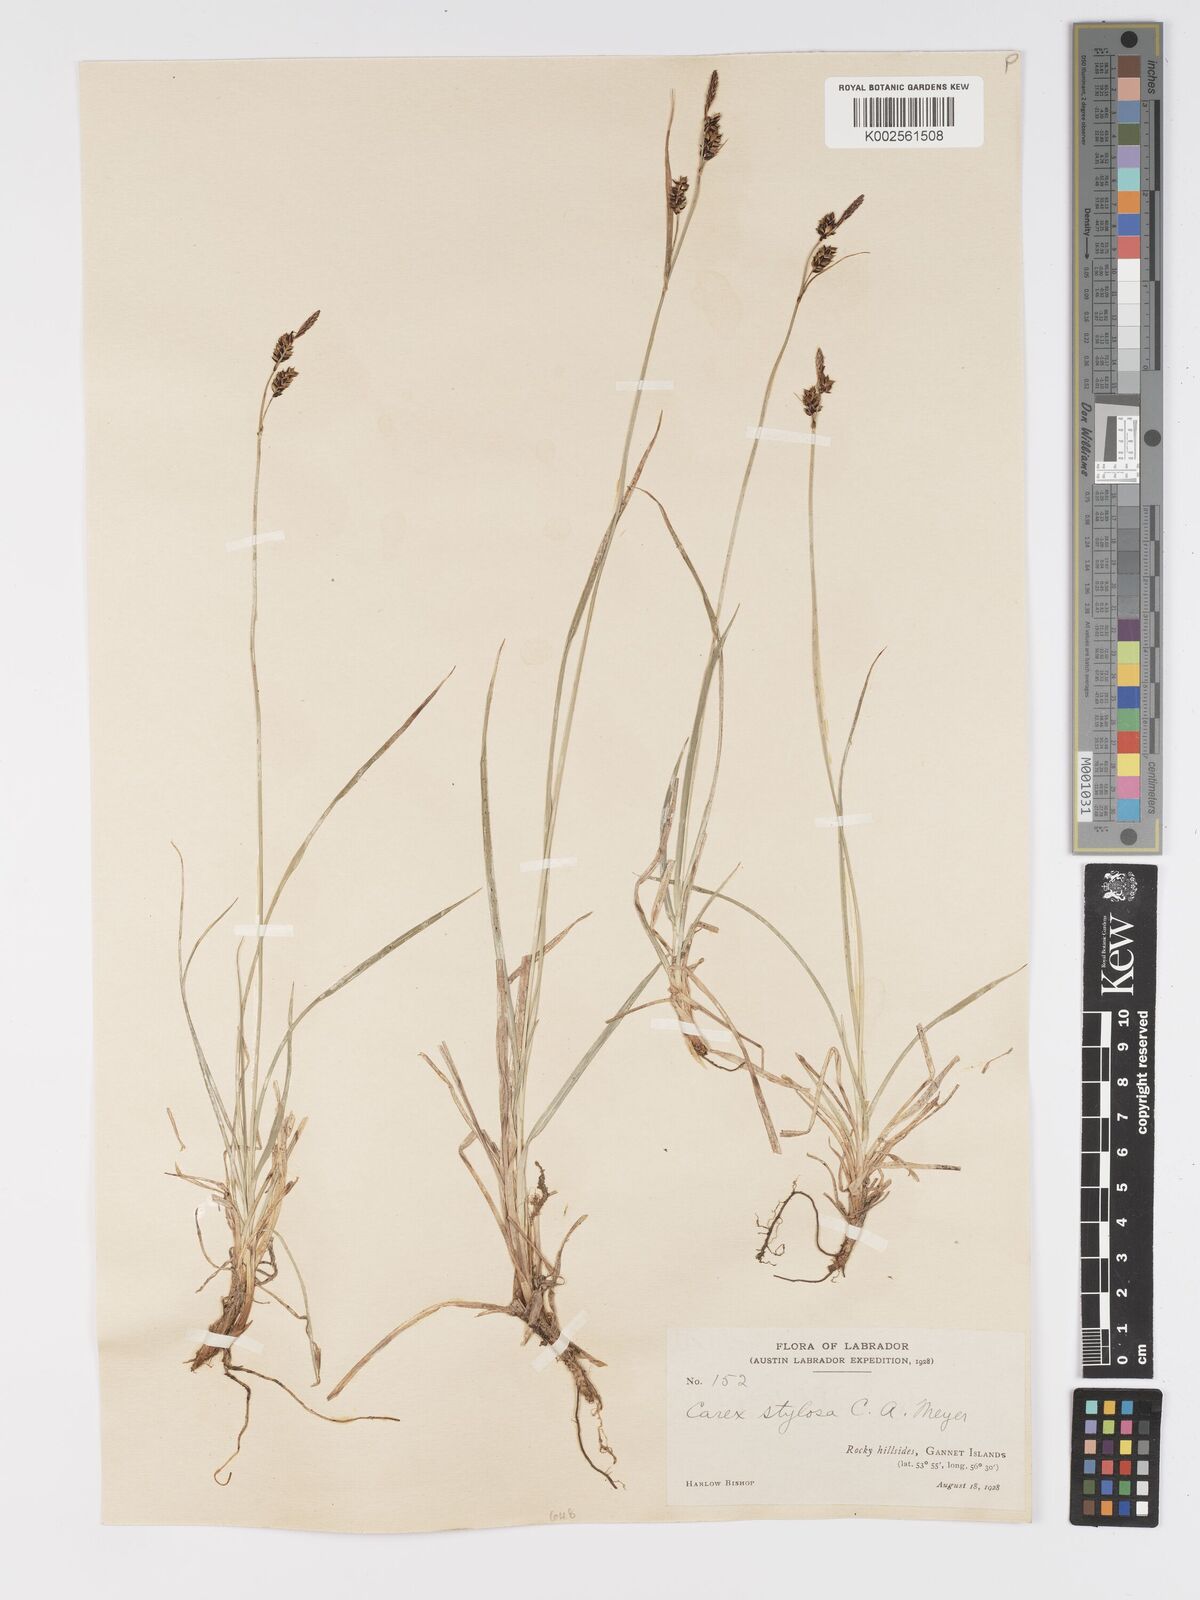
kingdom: Plantae
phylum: Tracheophyta
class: Liliopsida
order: Poales
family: Cyperaceae
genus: Carex
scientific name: Carex stylosa
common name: Long-styled sedge
